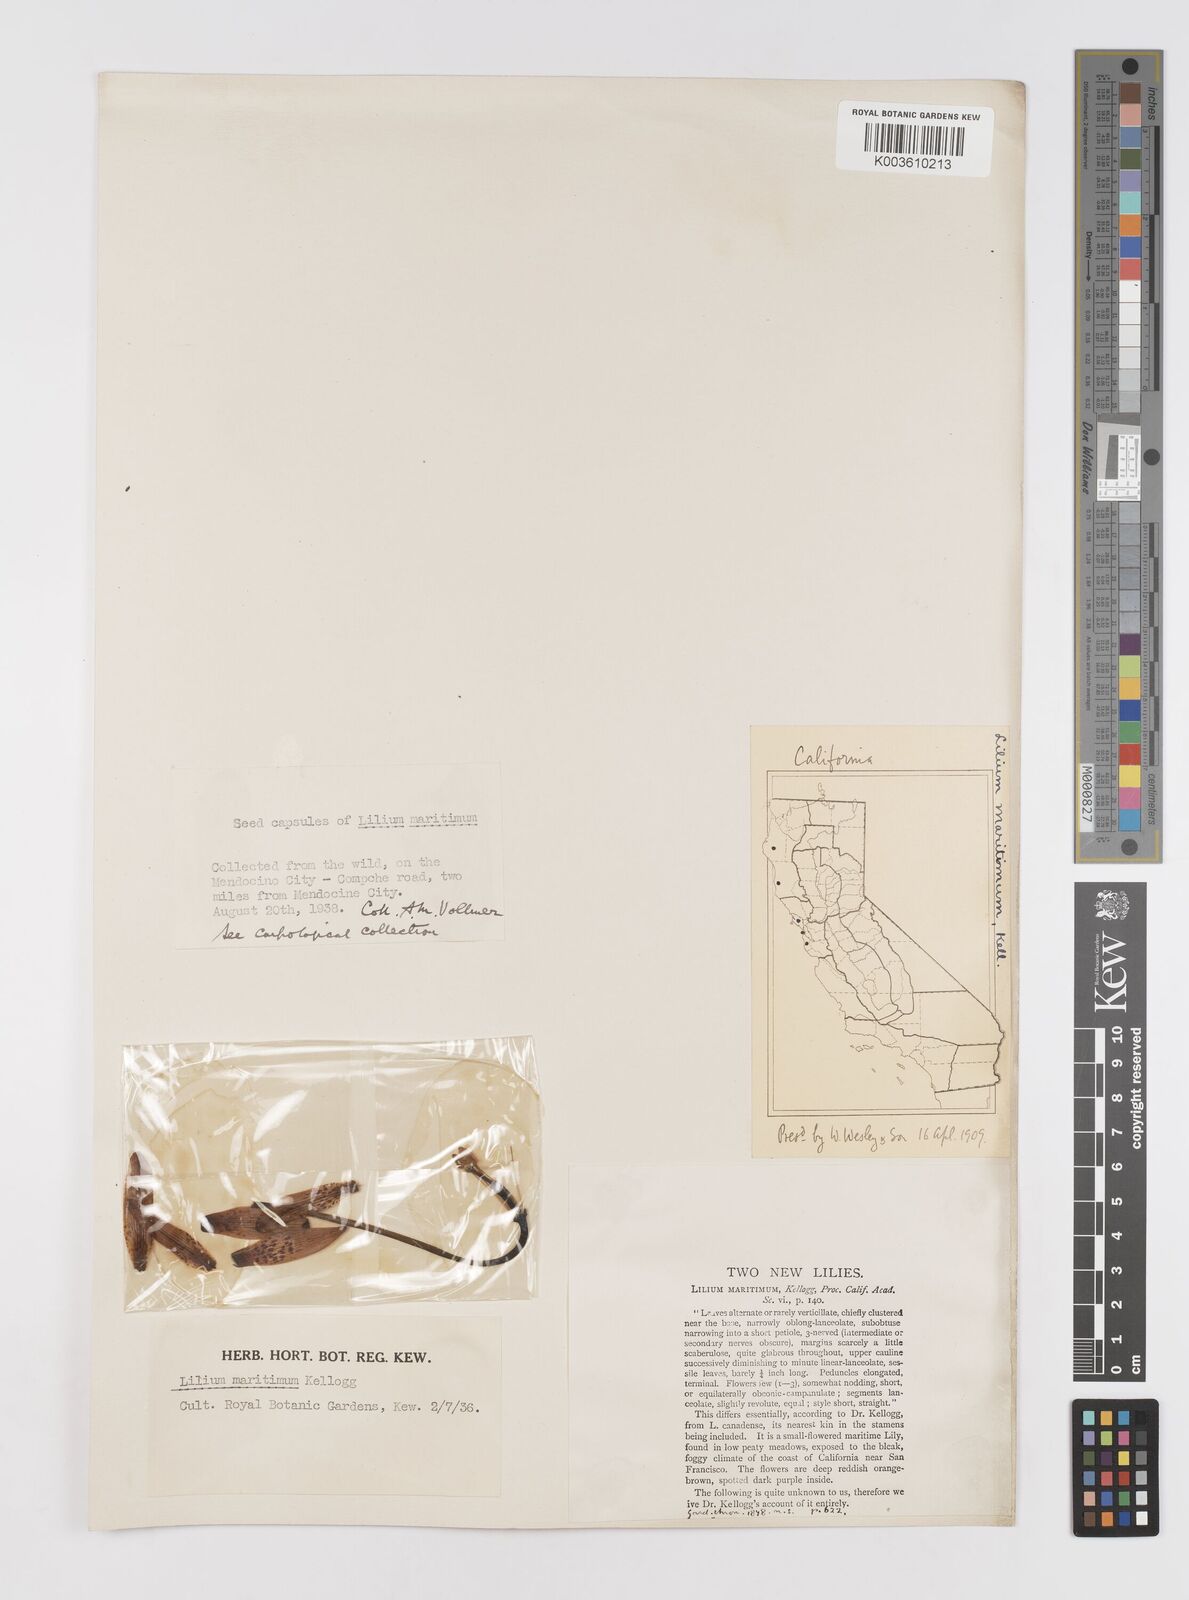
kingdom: Plantae
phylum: Tracheophyta
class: Liliopsida
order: Liliales
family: Liliaceae
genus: Lilium
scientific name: Lilium maritimum
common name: Coastal lily
